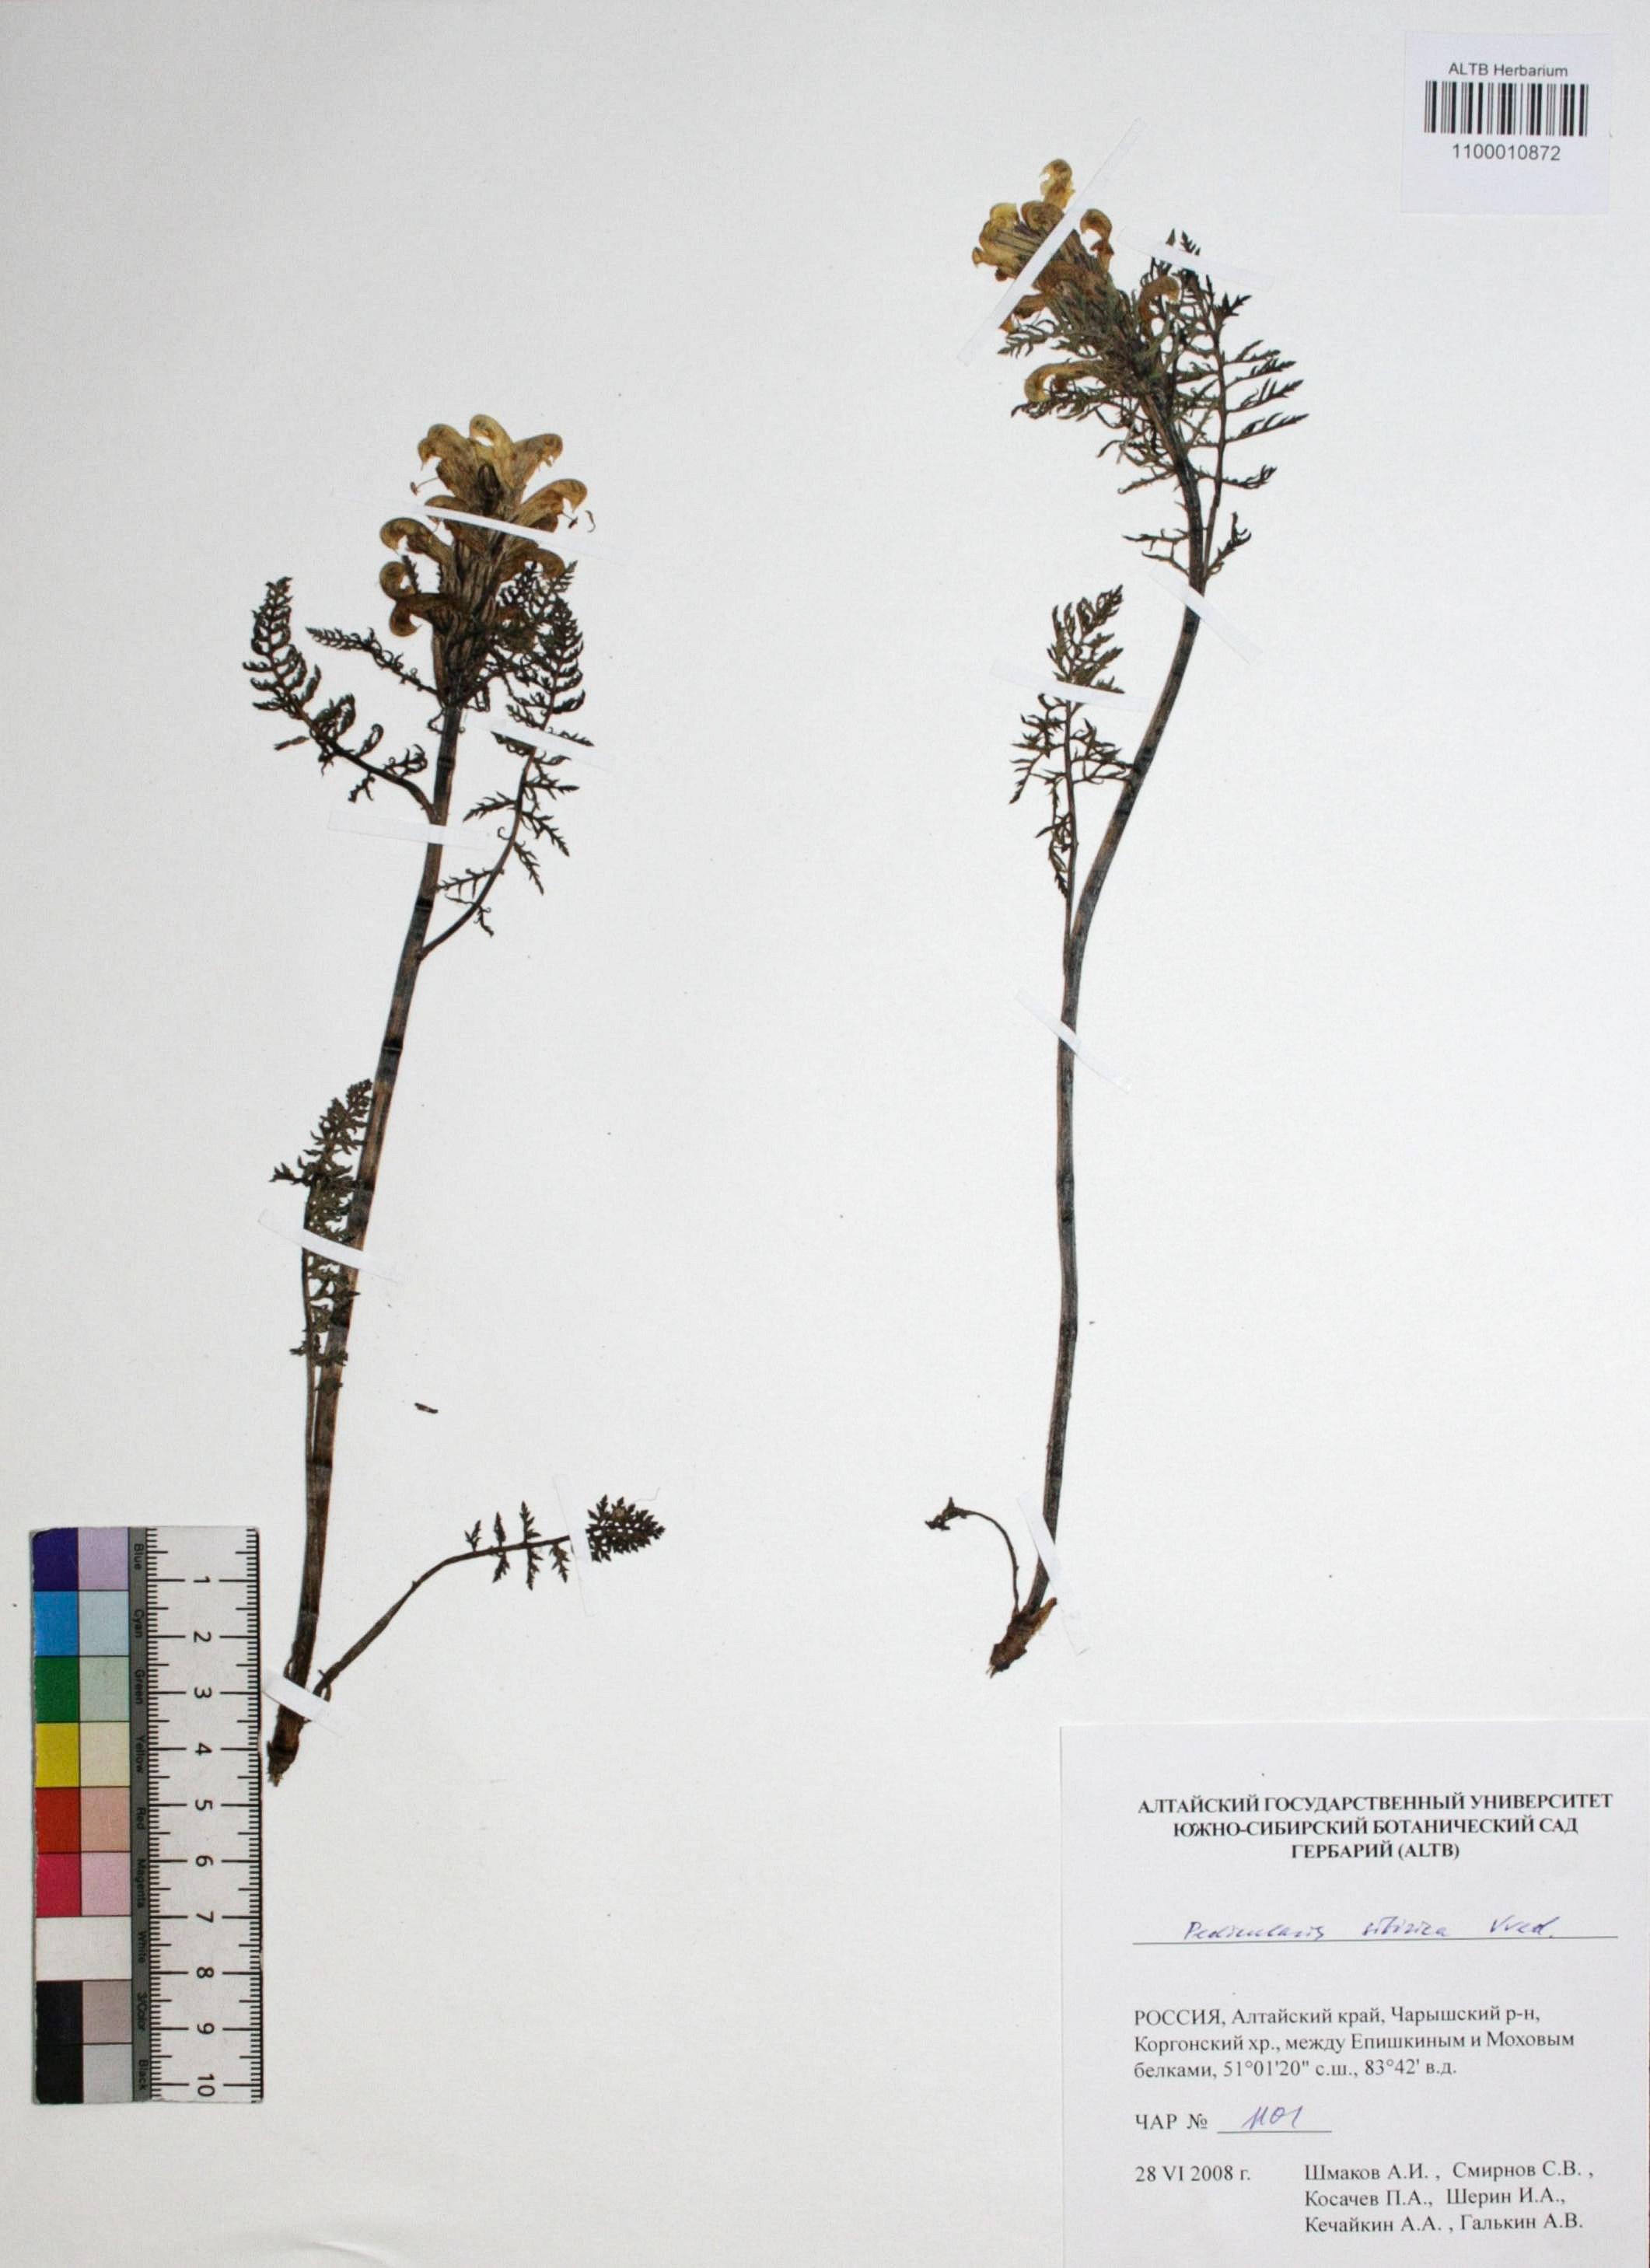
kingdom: Plantae
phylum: Tracheophyta
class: Magnoliopsida
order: Lamiales
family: Orobanchaceae
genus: Pedicularis
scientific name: Pedicularis sibirica
